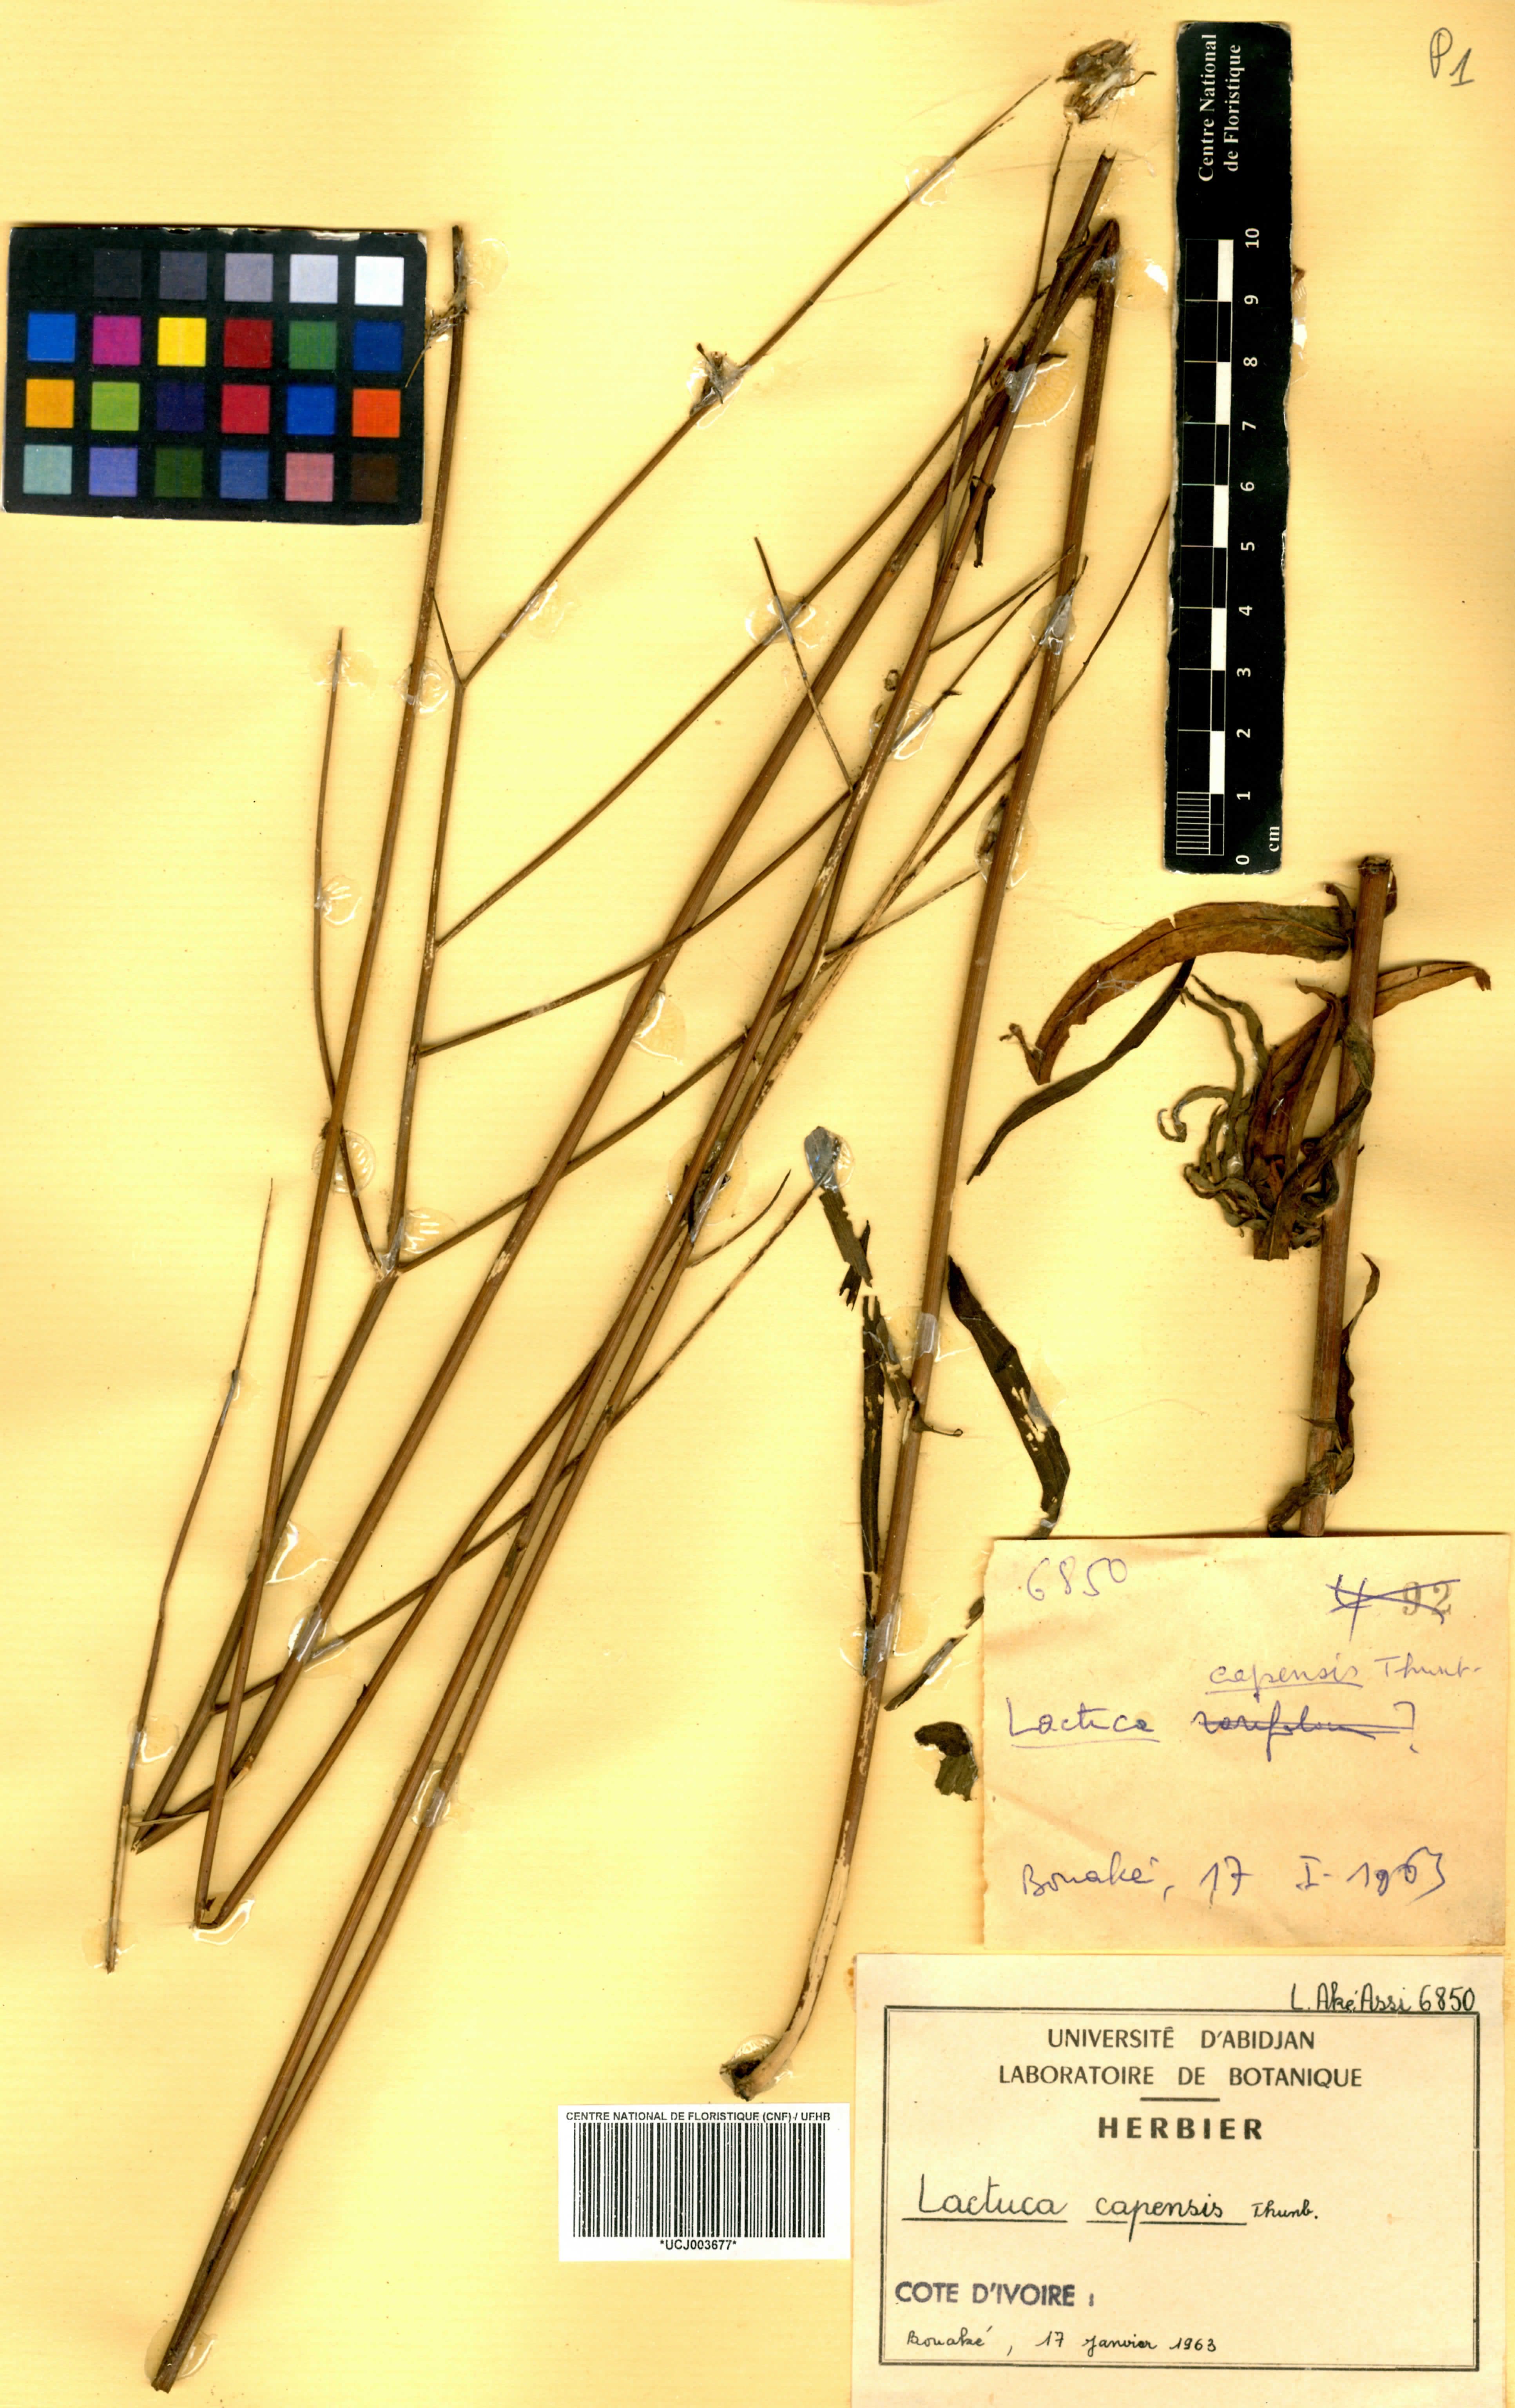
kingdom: Plantae
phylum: Tracheophyta
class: Magnoliopsida
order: Asterales
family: Asteraceae
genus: Lactuca
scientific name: Lactuca inermis
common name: Wild lettuce
